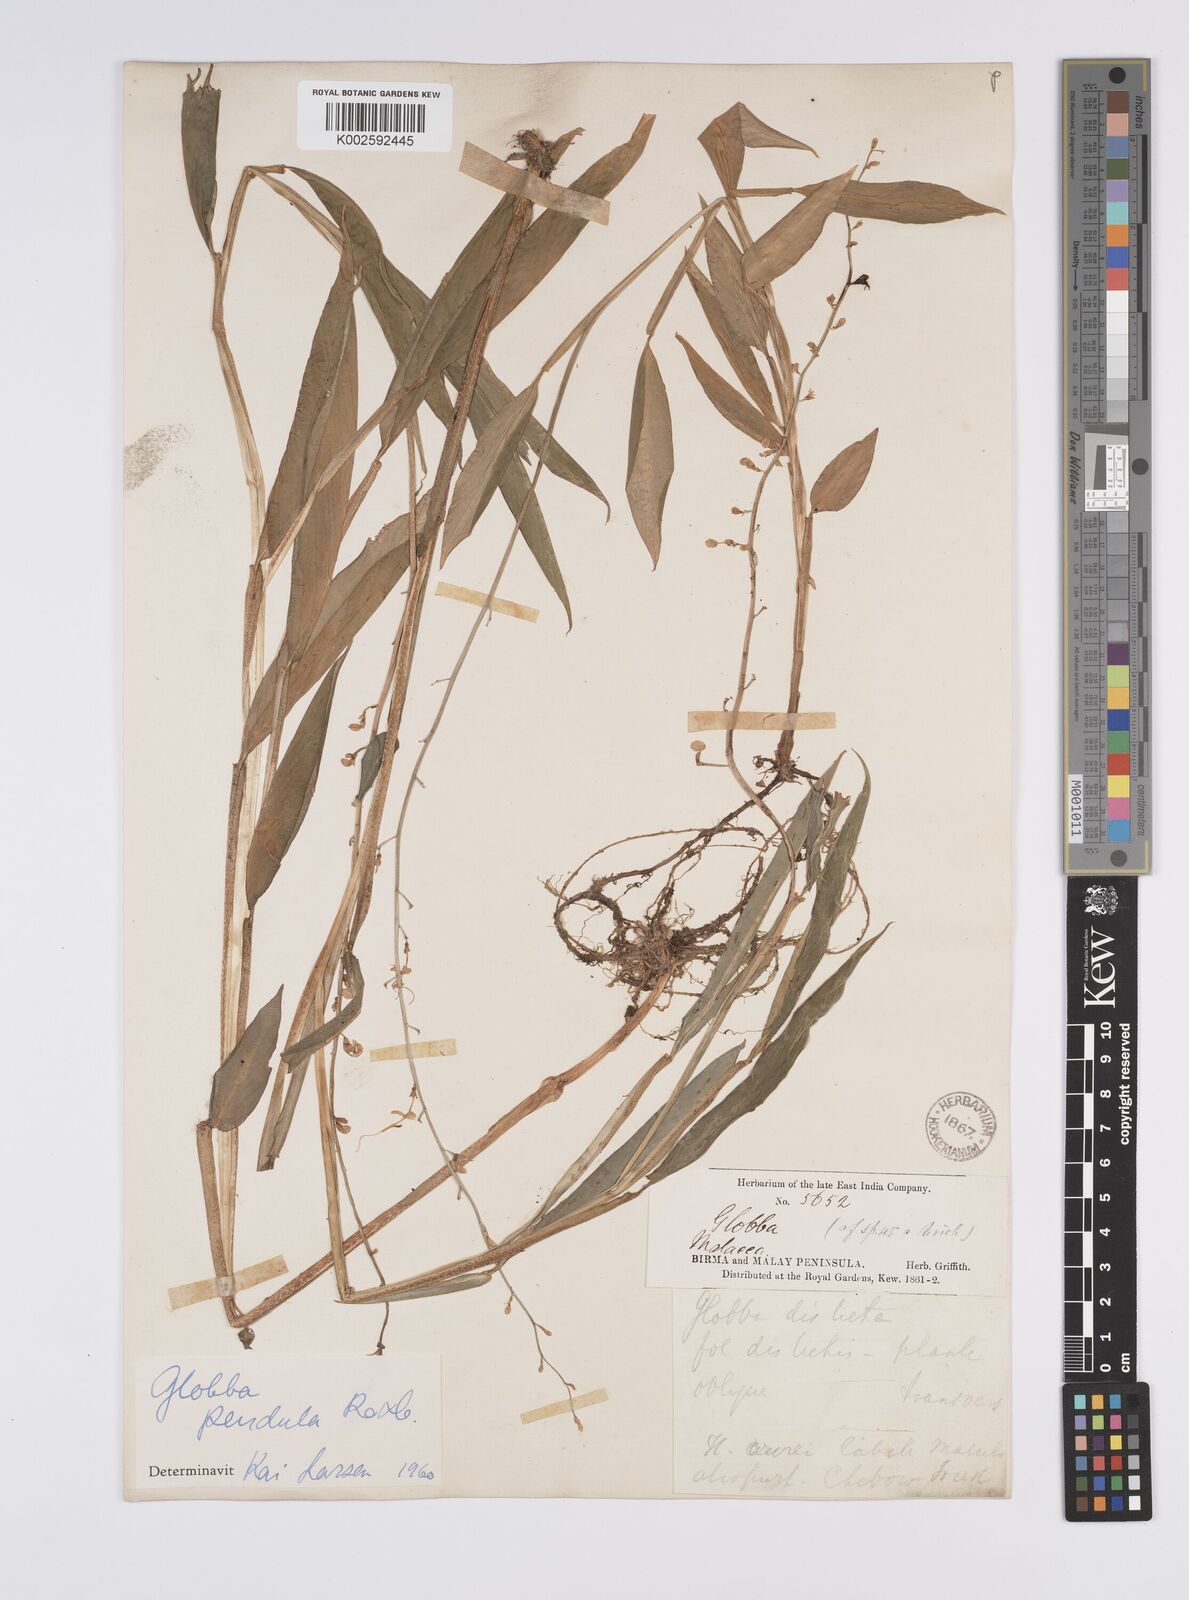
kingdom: Plantae
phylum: Tracheophyta
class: Liliopsida
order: Zingiberales
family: Zingiberaceae
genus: Globba
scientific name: Globba pendula
